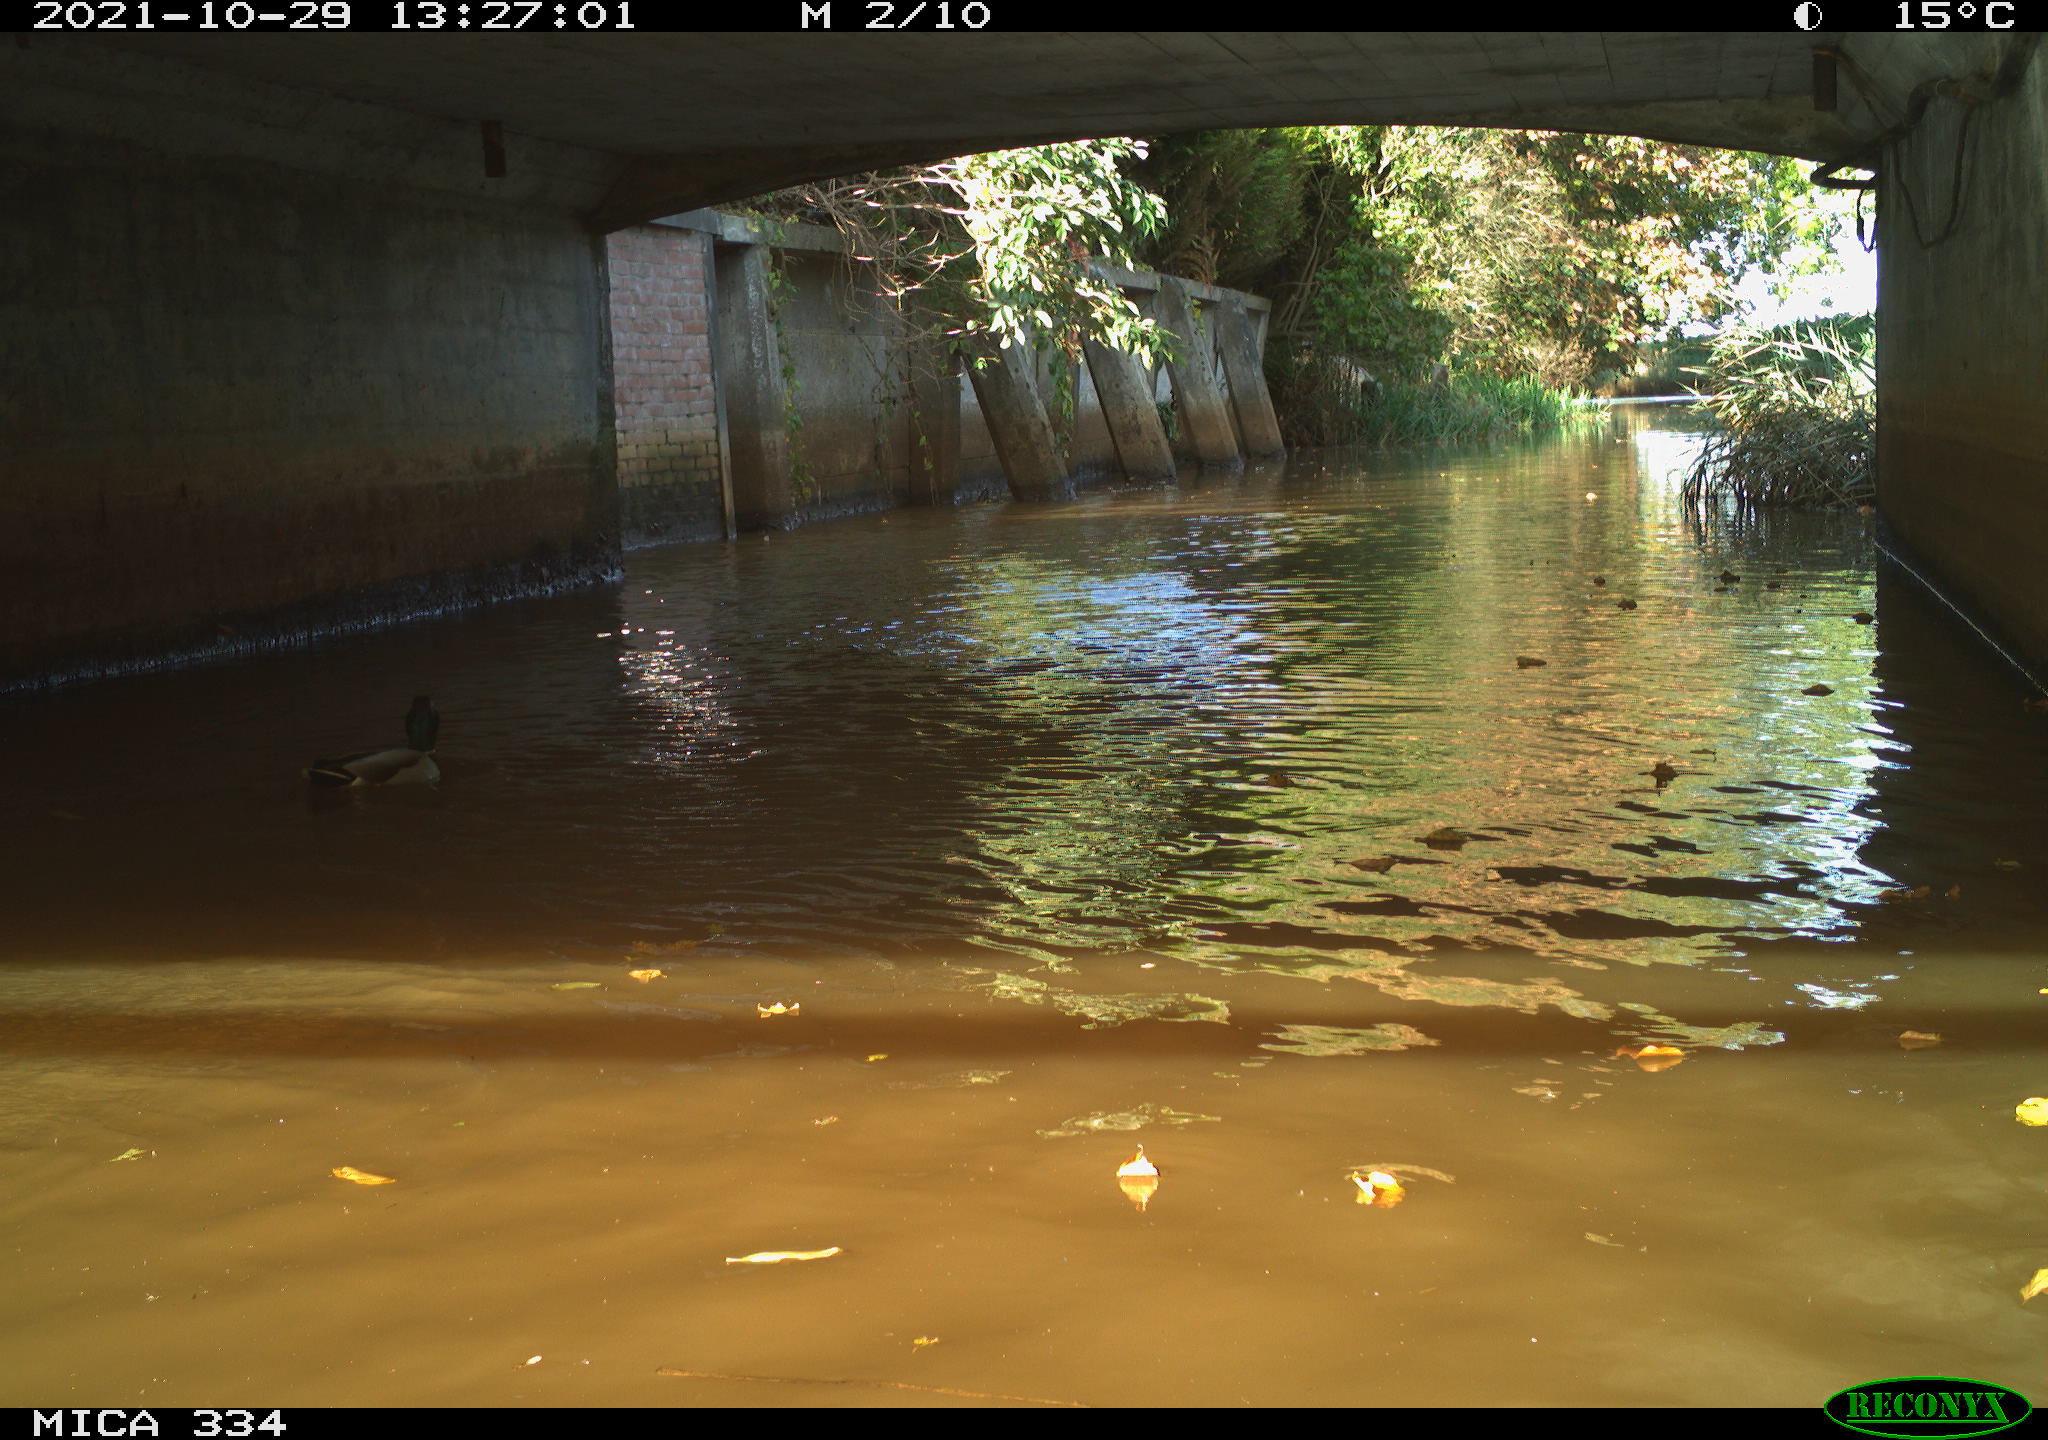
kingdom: Animalia
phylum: Chordata
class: Aves
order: Anseriformes
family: Anatidae
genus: Anas
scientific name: Anas platyrhynchos
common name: Mallard
